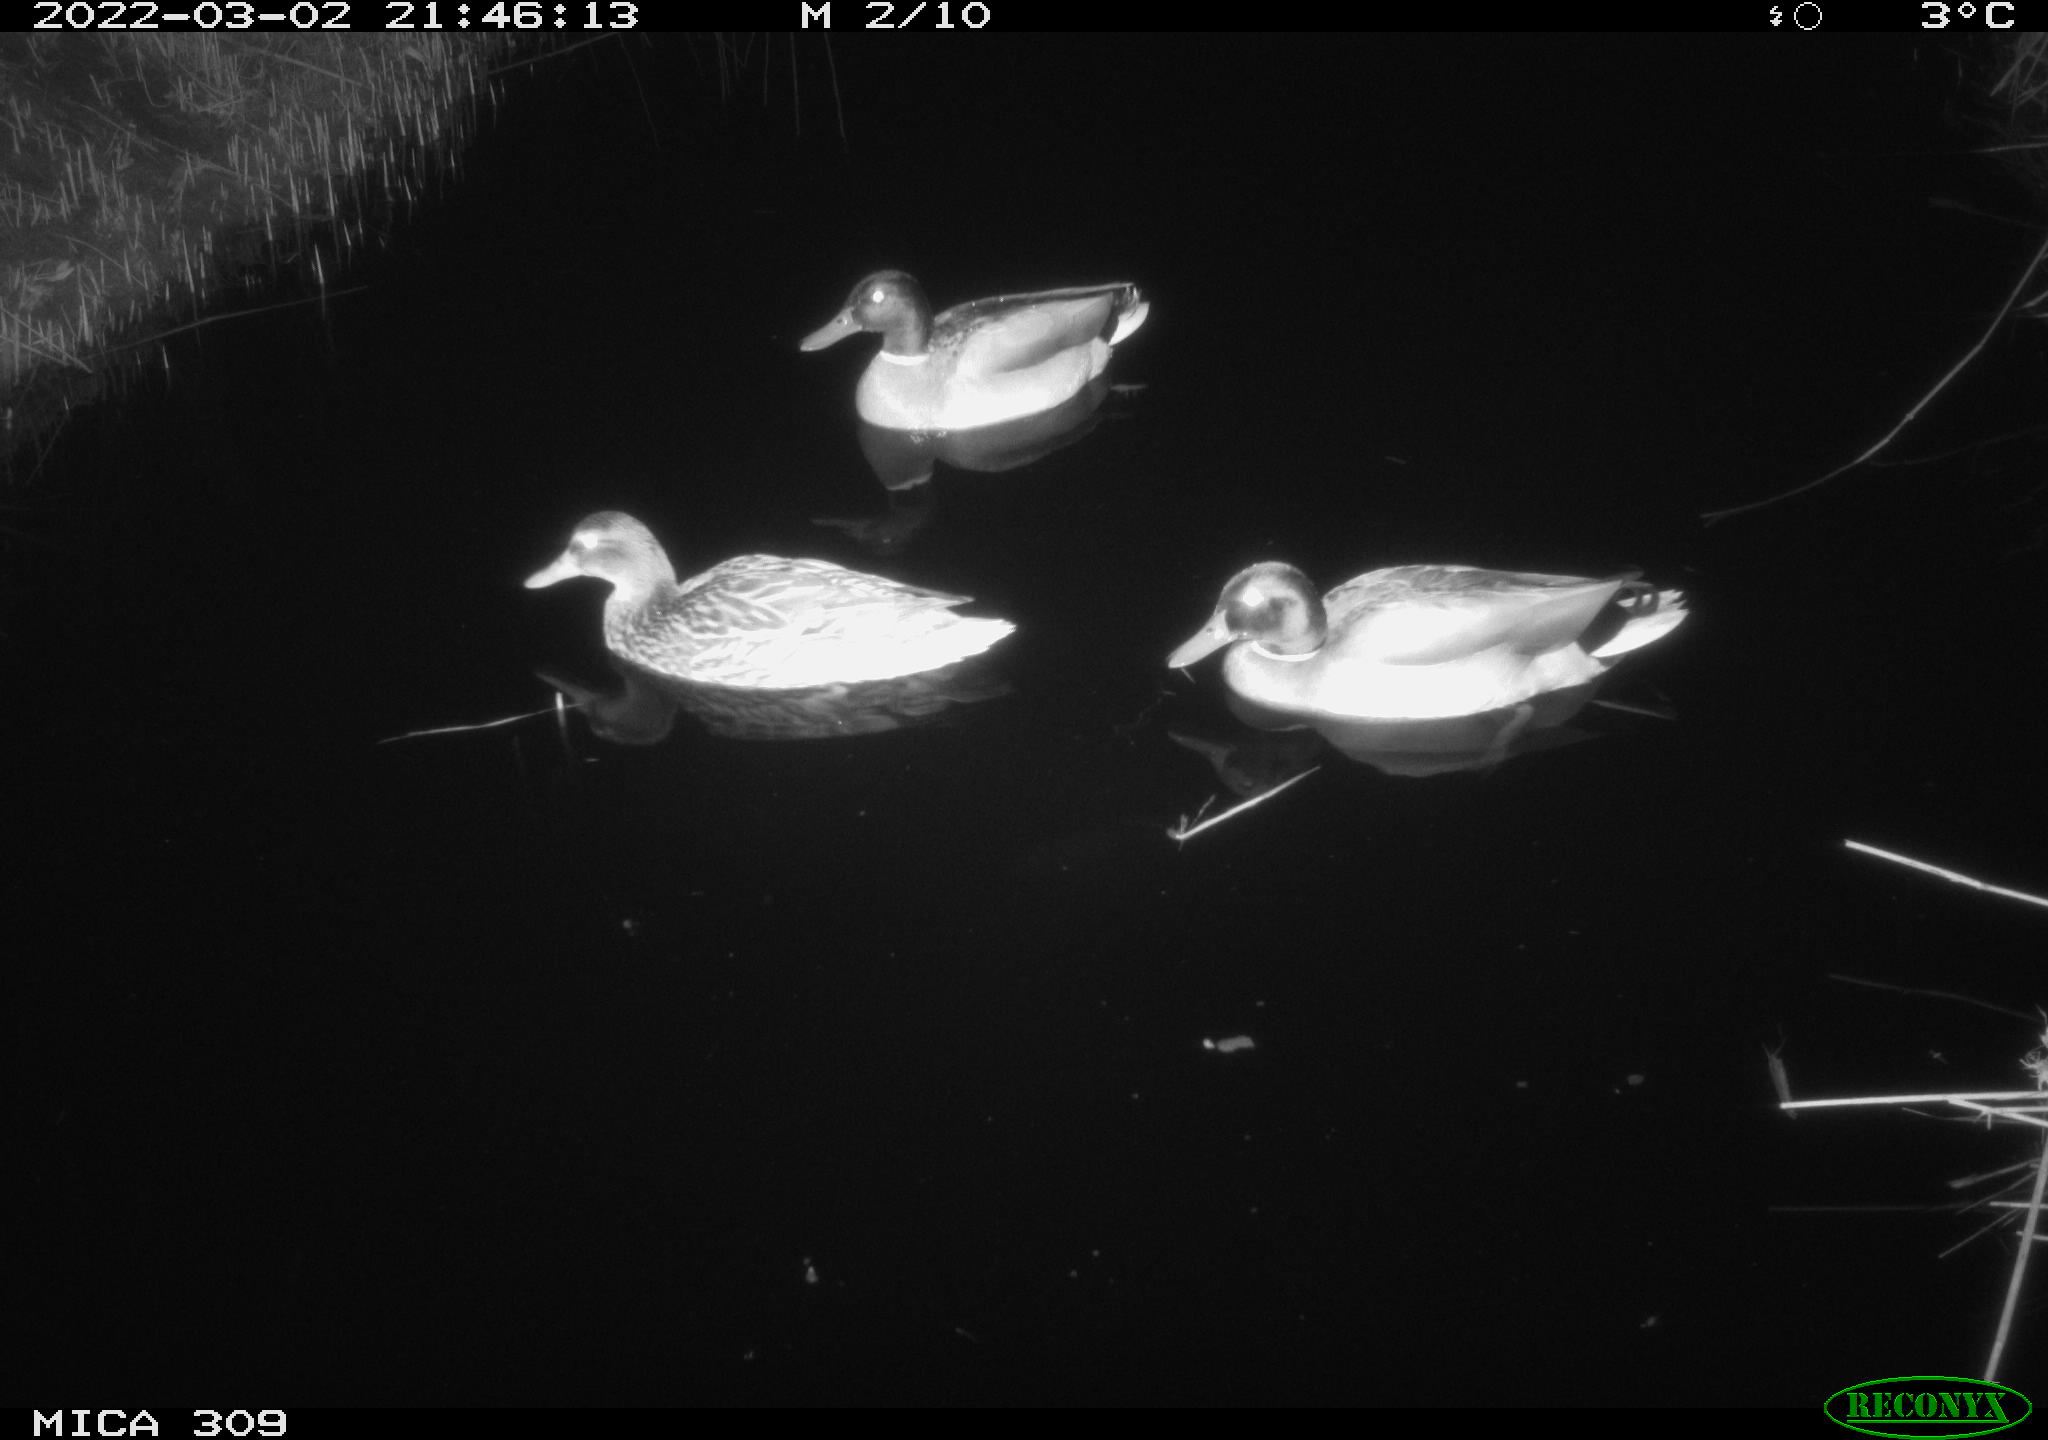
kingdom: Animalia
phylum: Chordata
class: Aves
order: Anseriformes
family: Anatidae
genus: Anas
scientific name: Anas platyrhynchos
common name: Mallard
